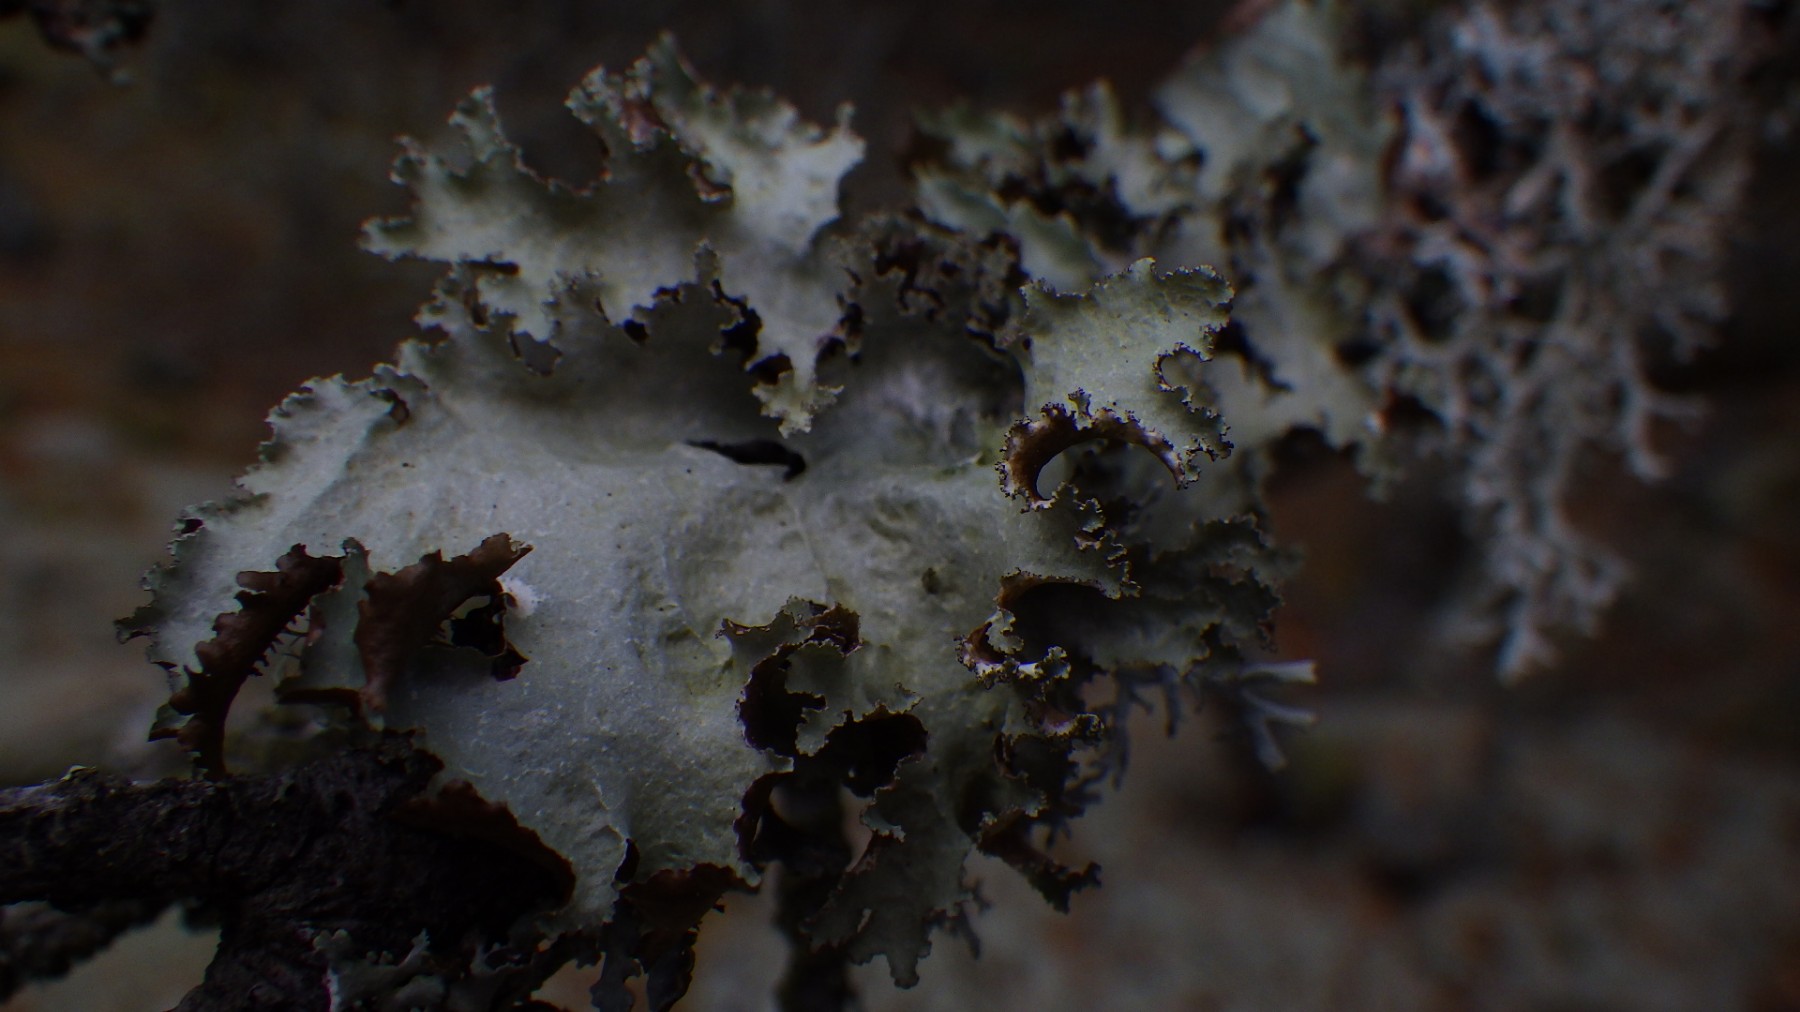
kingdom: Fungi
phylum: Ascomycota
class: Lecanoromycetes
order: Lecanorales
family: Parmeliaceae
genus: Platismatia
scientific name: Platismatia glauca
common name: blågrå papirlav
